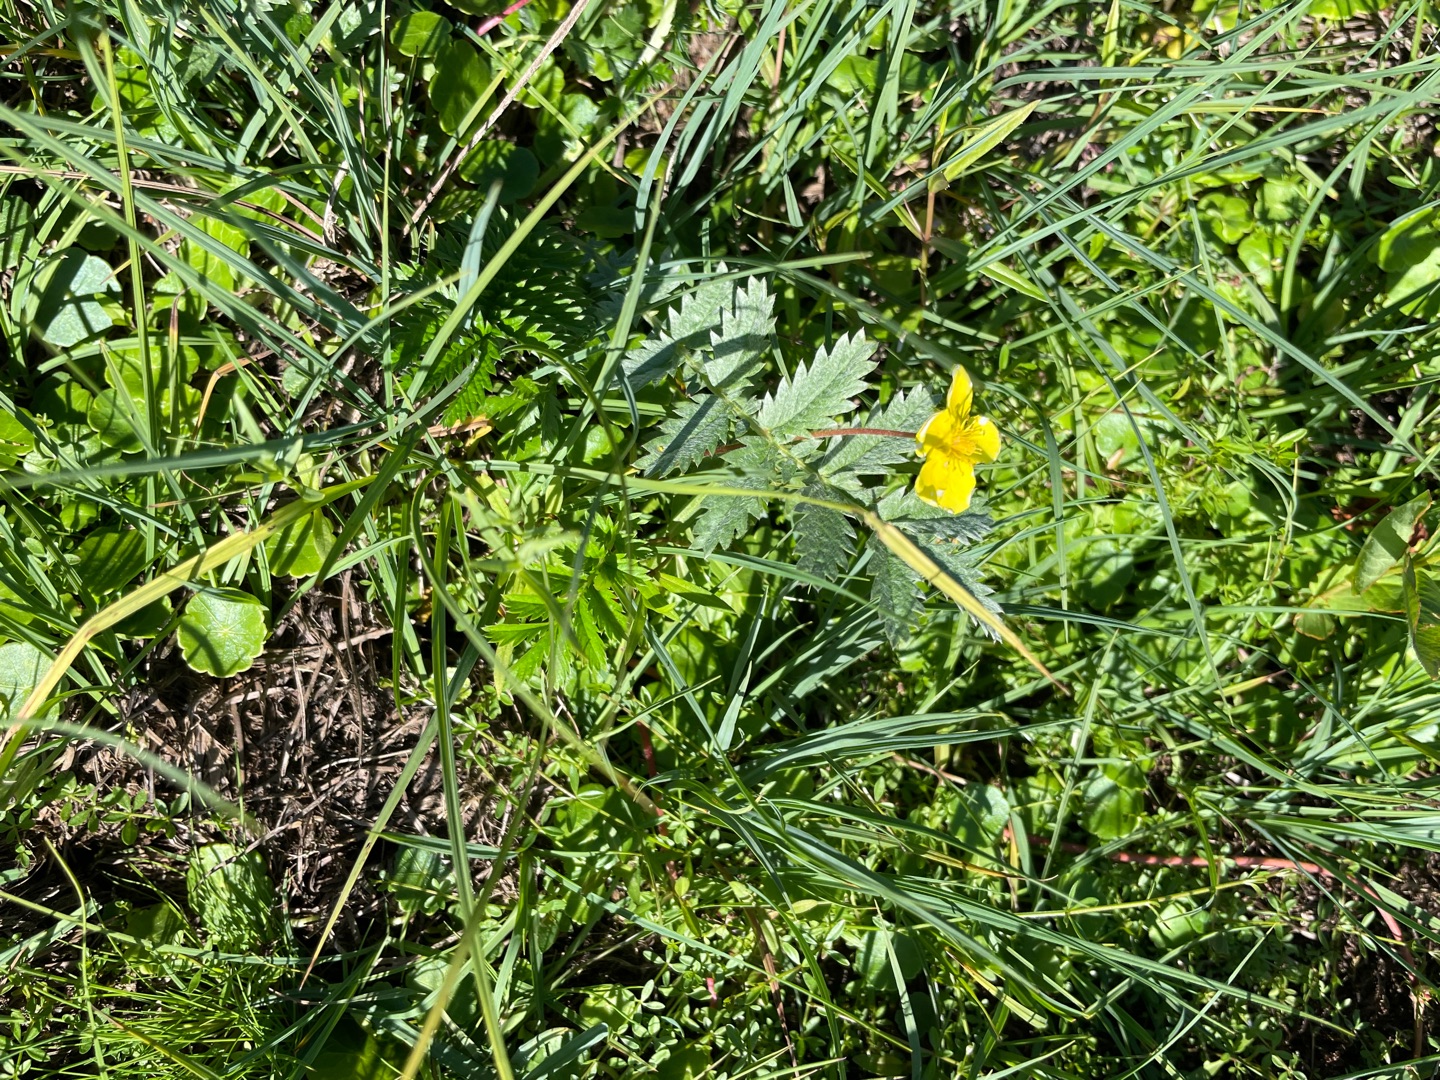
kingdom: Plantae
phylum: Tracheophyta
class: Magnoliopsida
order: Rosales
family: Rosaceae
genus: Argentina
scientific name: Argentina anserina
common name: Gåsepotentil
